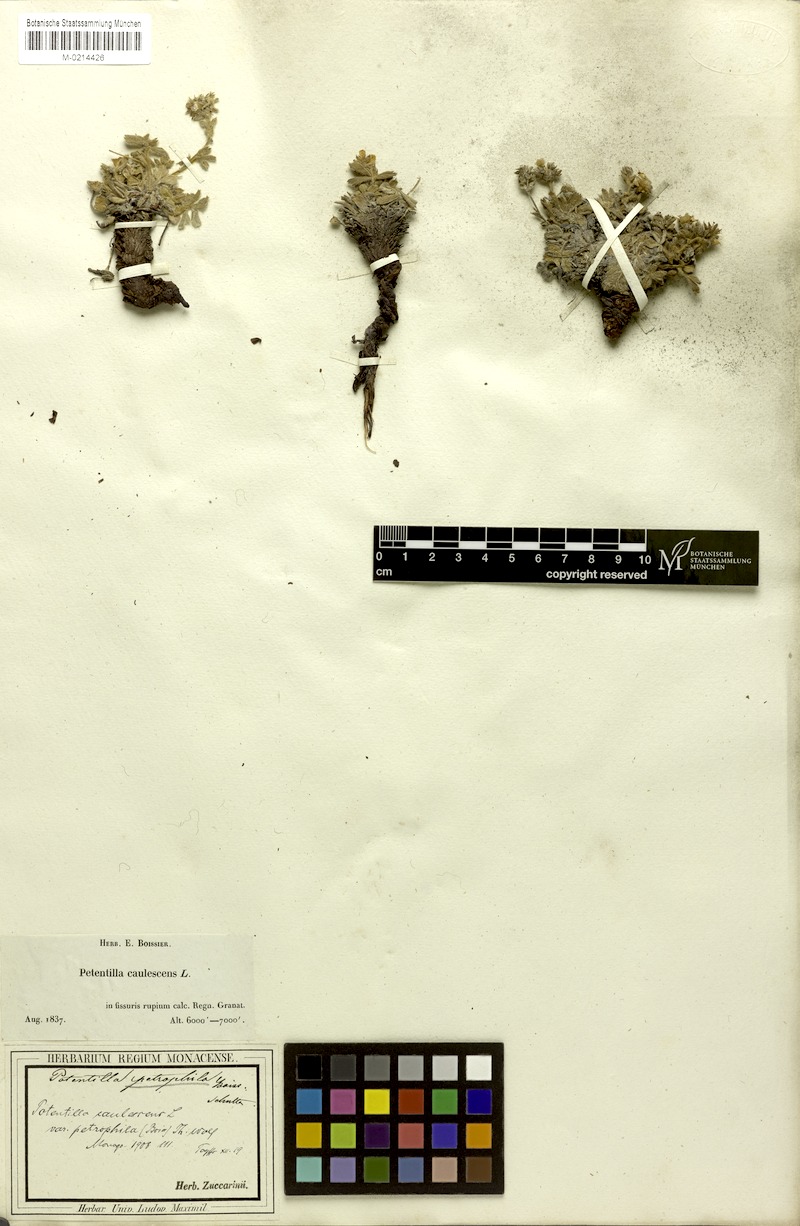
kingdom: Plantae
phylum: Tracheophyta
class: Magnoliopsida
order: Rosales
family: Rosaceae
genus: Potentilla
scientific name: Potentilla caulescens
